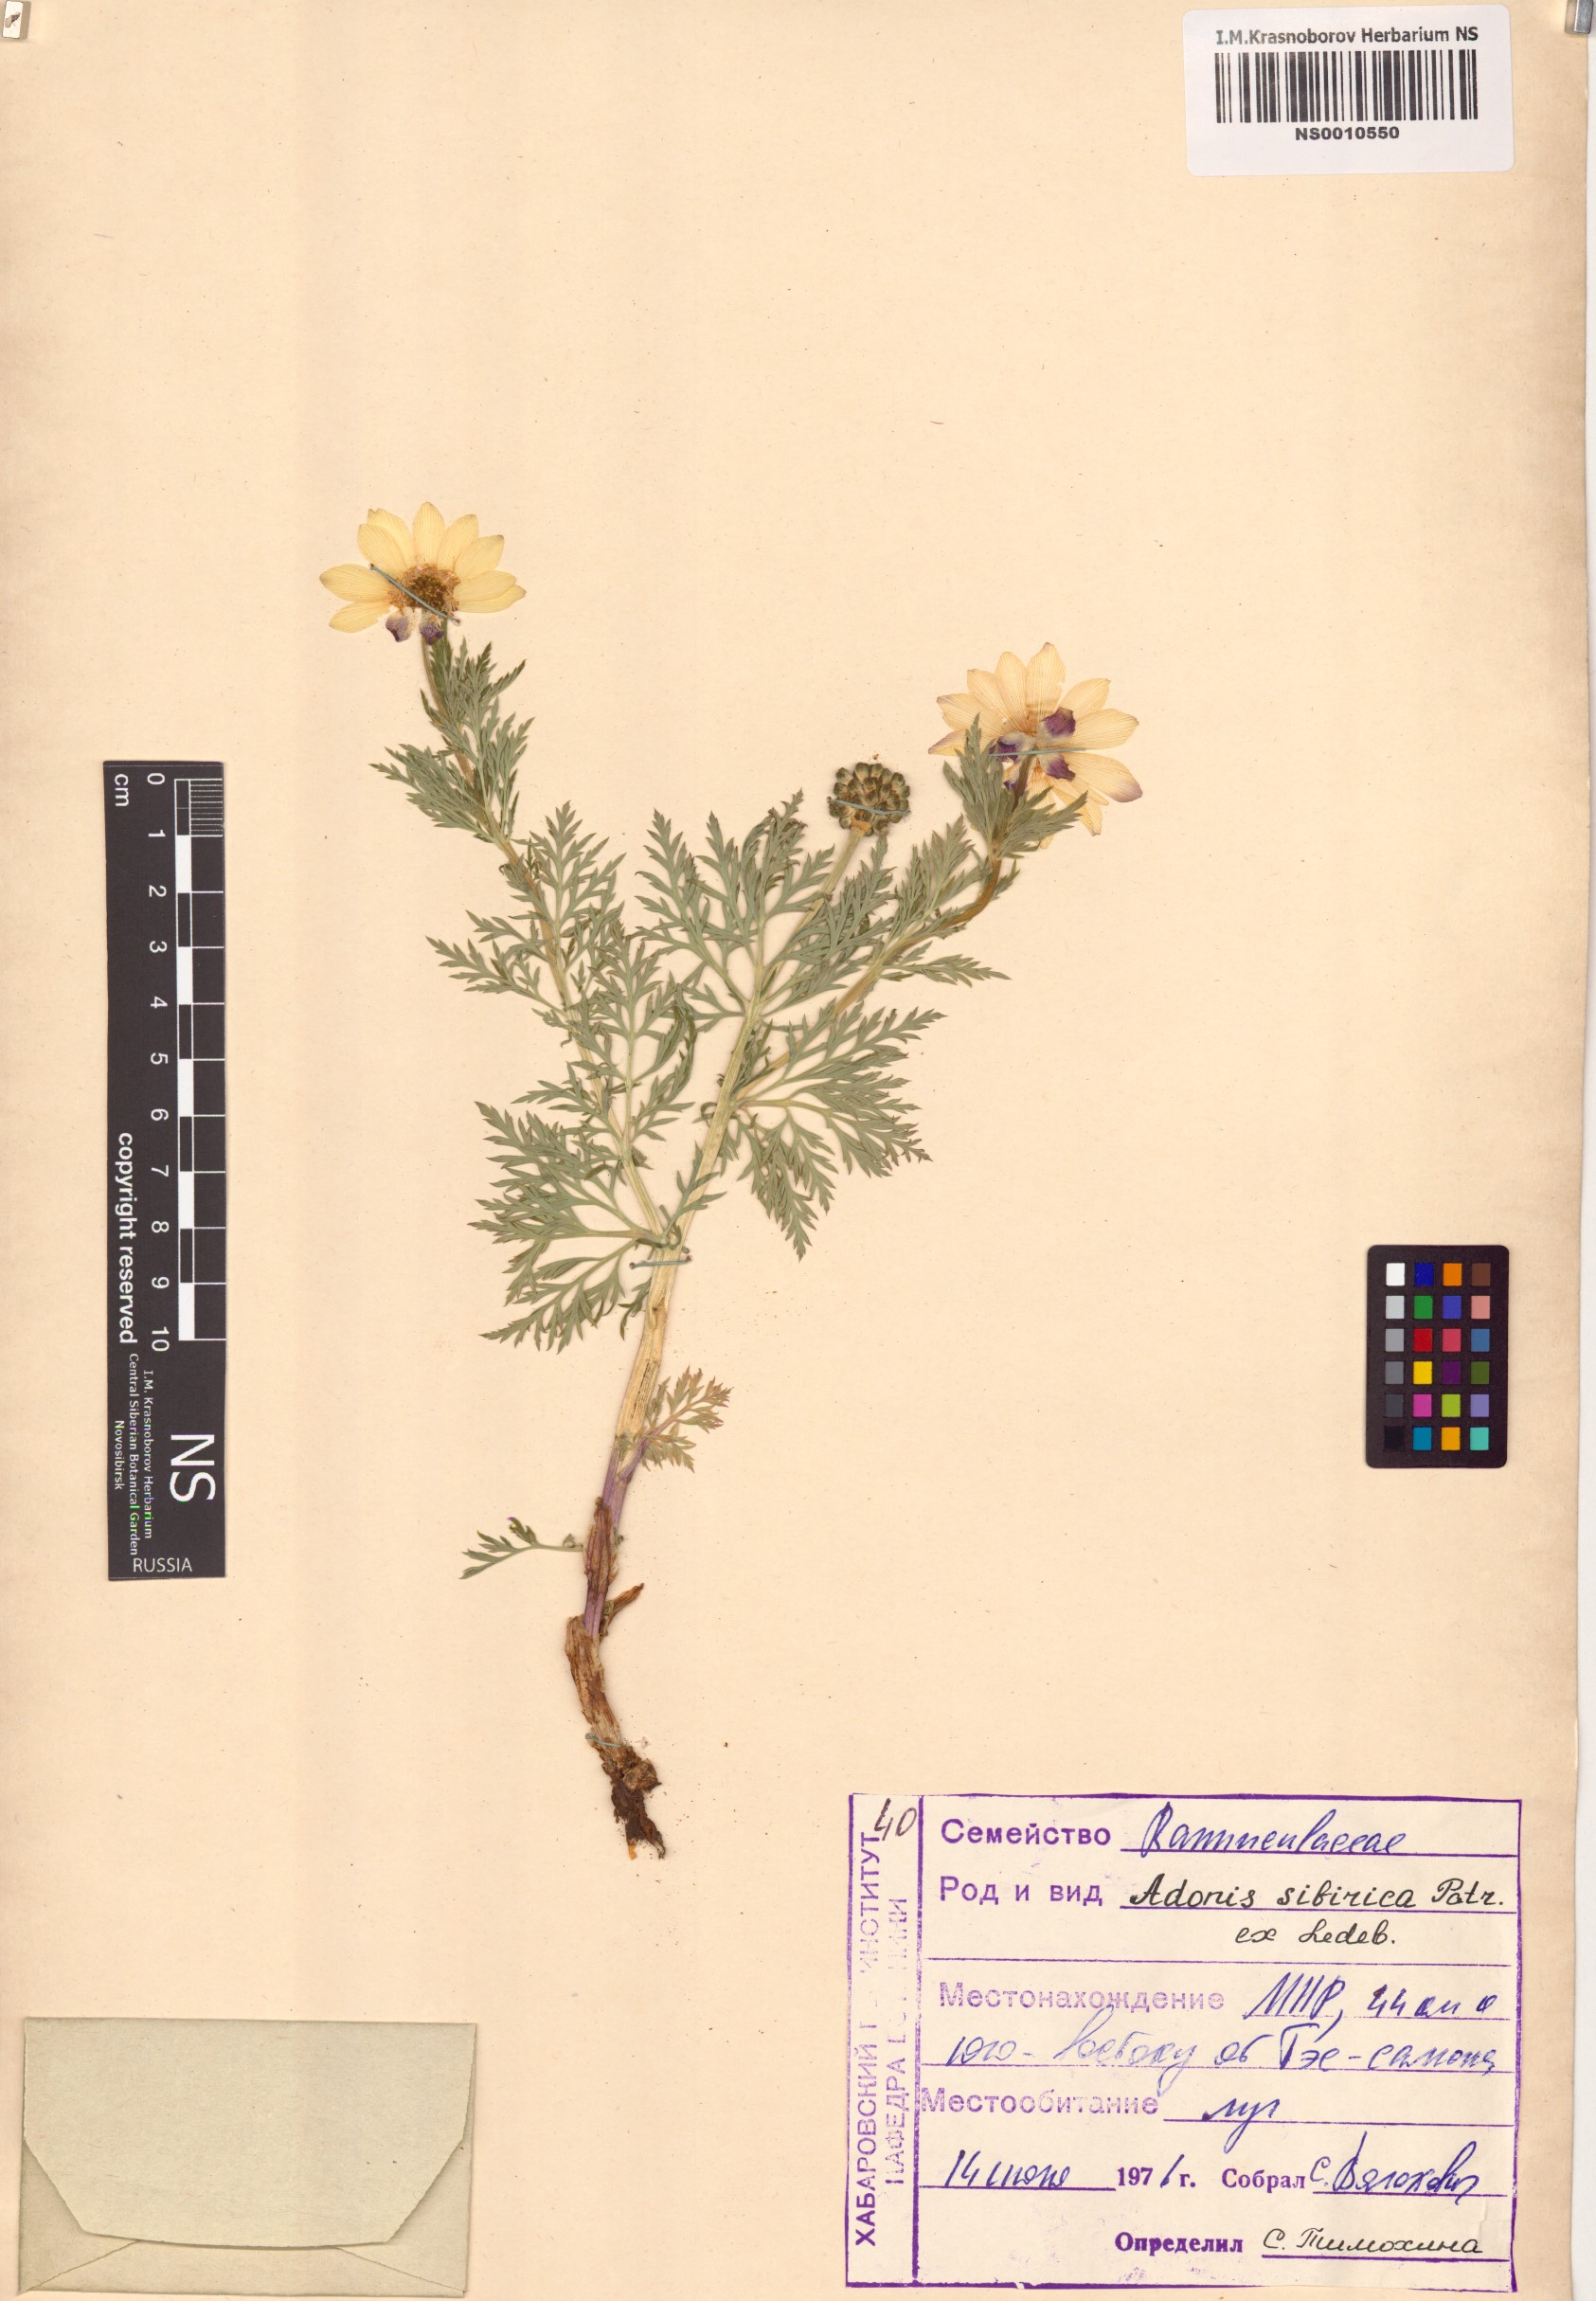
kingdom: Plantae
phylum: Tracheophyta
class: Magnoliopsida
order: Ranunculales
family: Ranunculaceae
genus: Adonis
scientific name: Adonis sibirica
